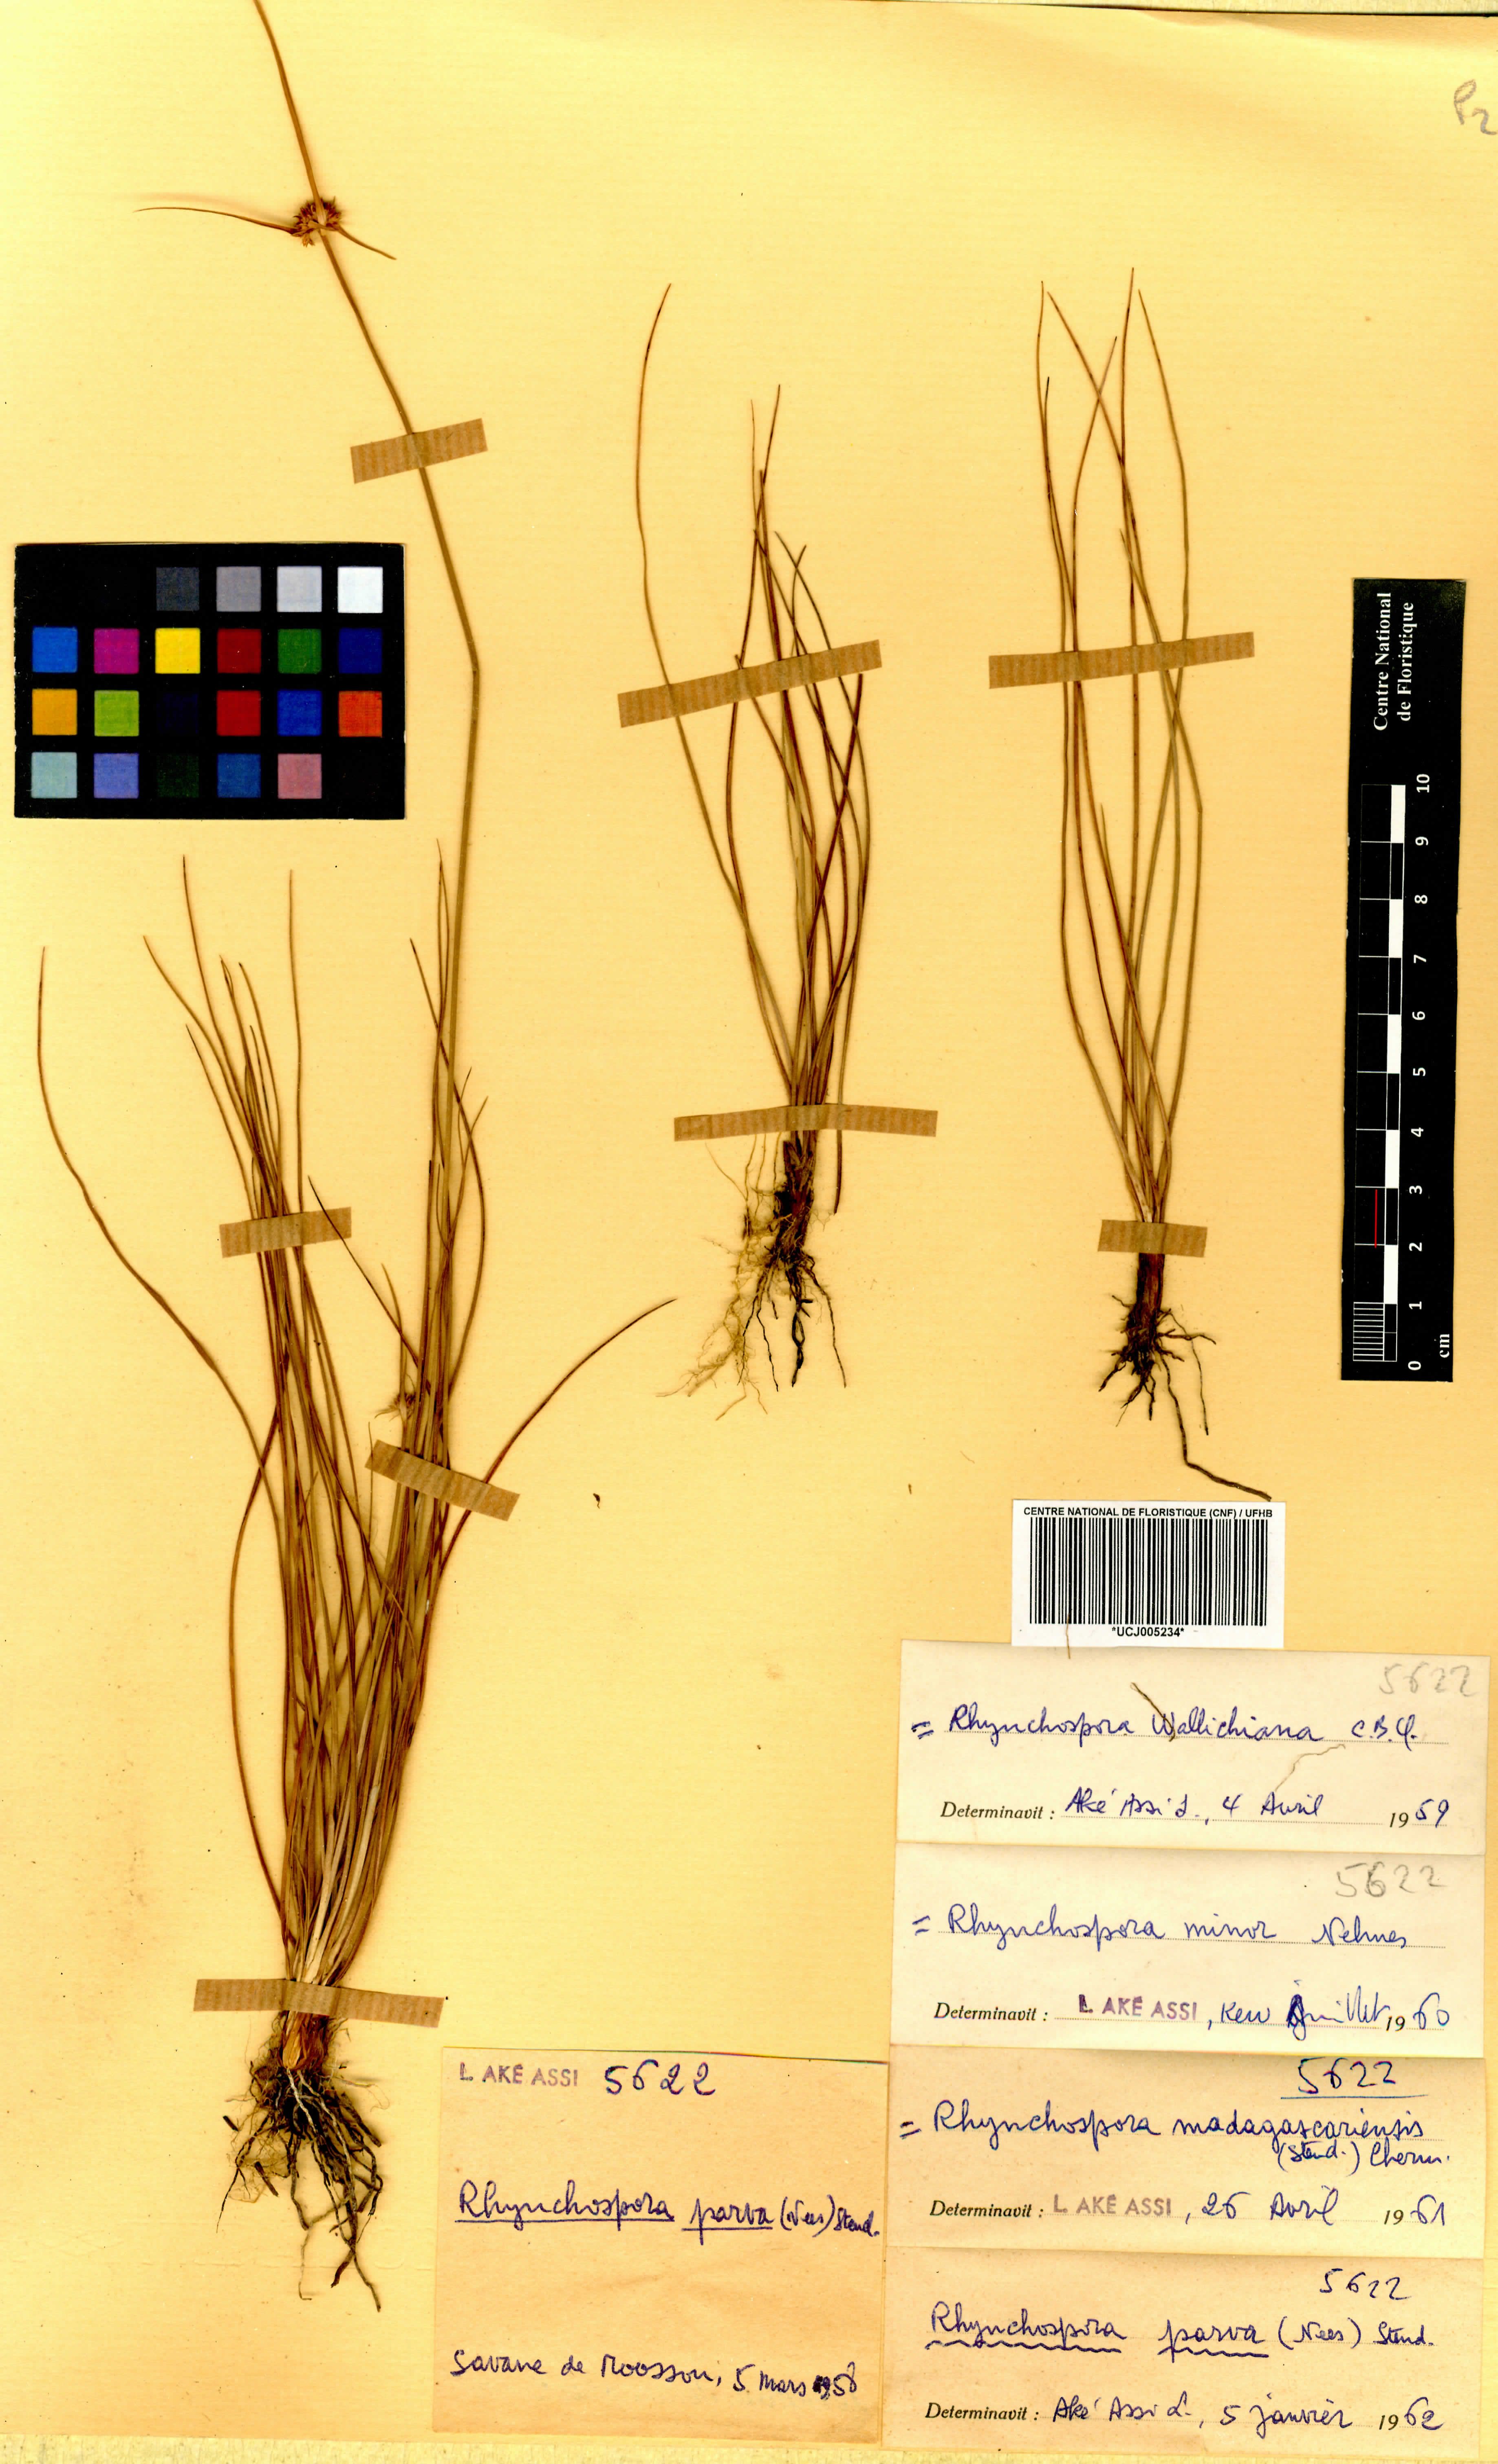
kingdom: Plantae
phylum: Tracheophyta
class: Liliopsida
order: Poales
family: Cyperaceae
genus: Rhynchospora
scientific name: Rhynchospora rubra
